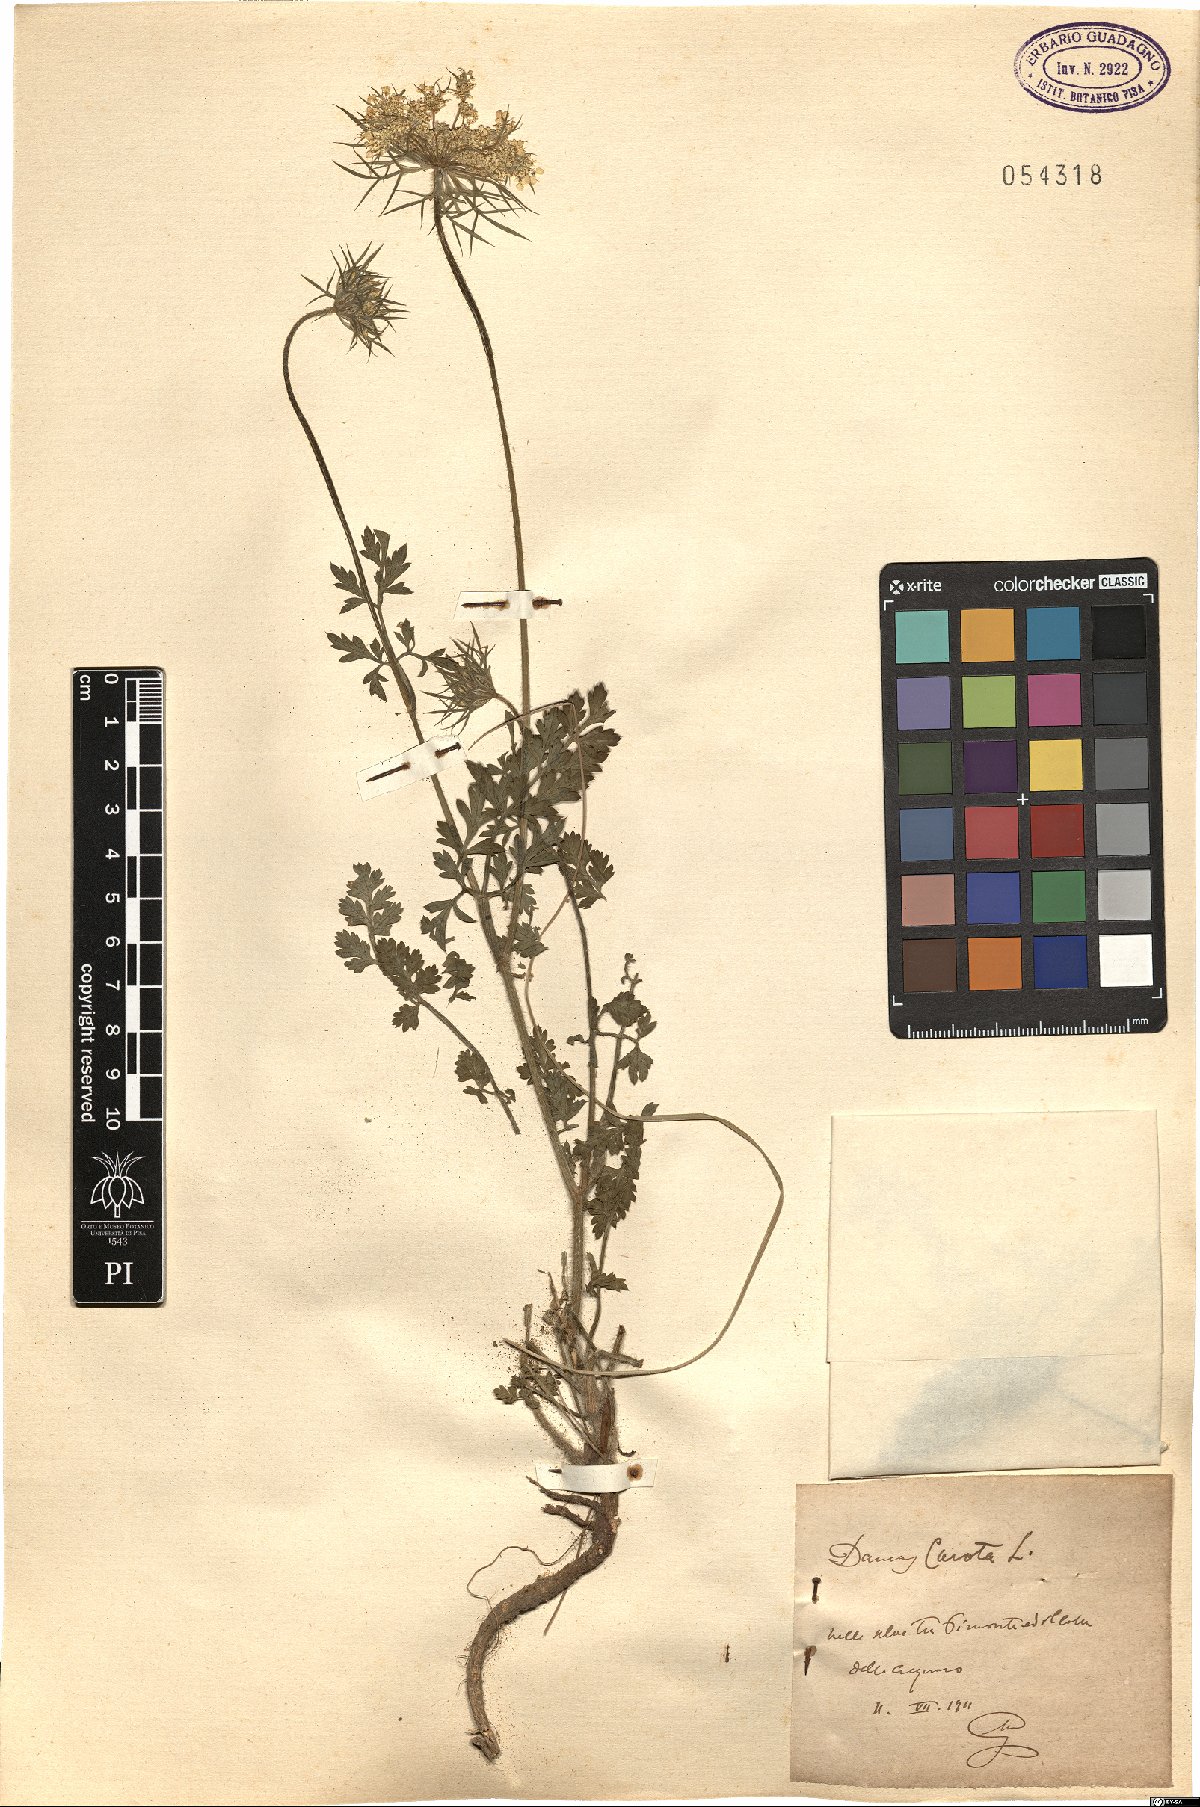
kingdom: Plantae
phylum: Tracheophyta
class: Magnoliopsida
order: Apiales
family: Apiaceae
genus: Daucus
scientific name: Daucus carota
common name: Wild carrot
